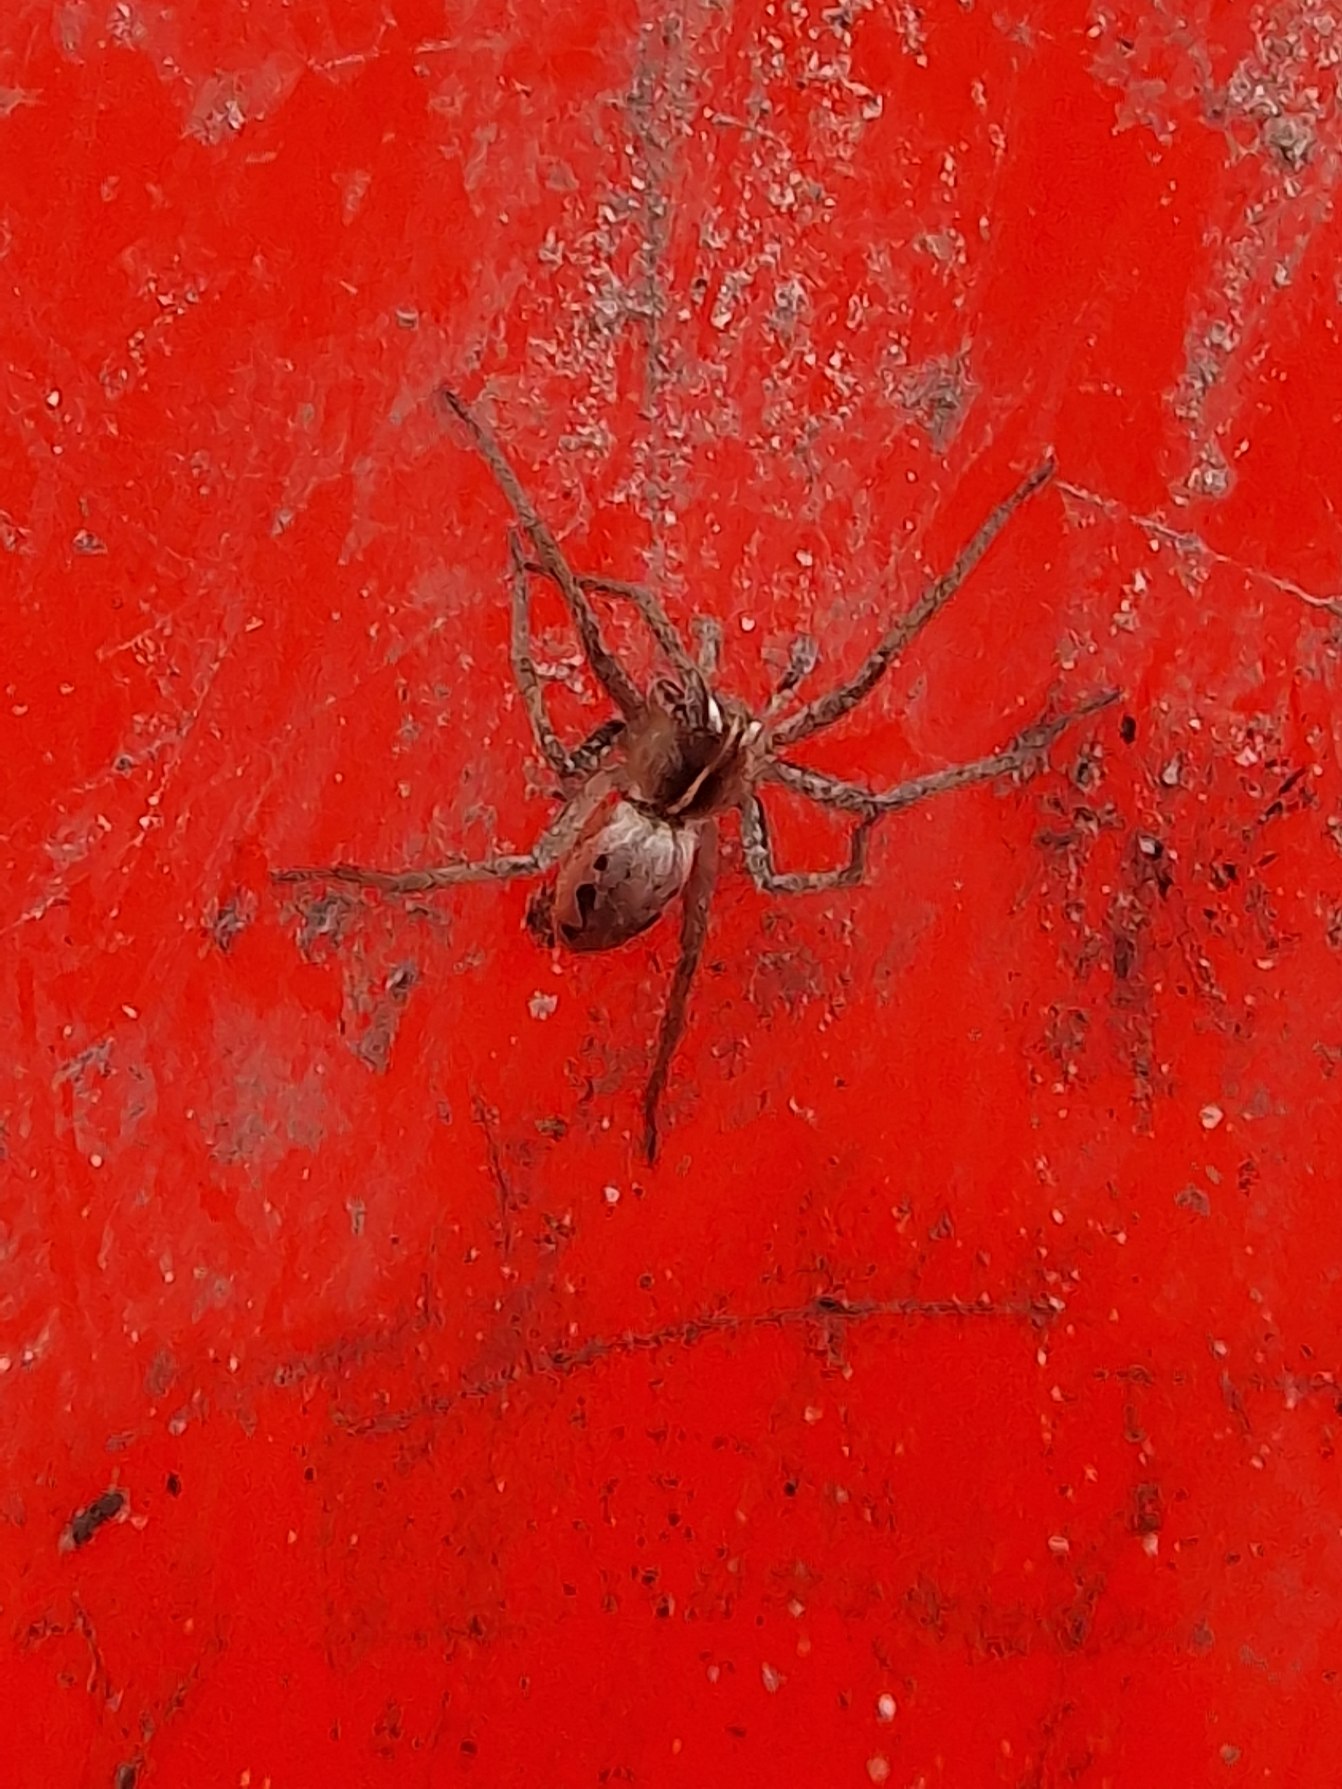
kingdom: Animalia
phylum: Arthropoda
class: Arachnida
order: Araneae
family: Pisauridae
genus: Pisaura
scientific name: Pisaura mirabilis
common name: Almindelig rovedderkop
